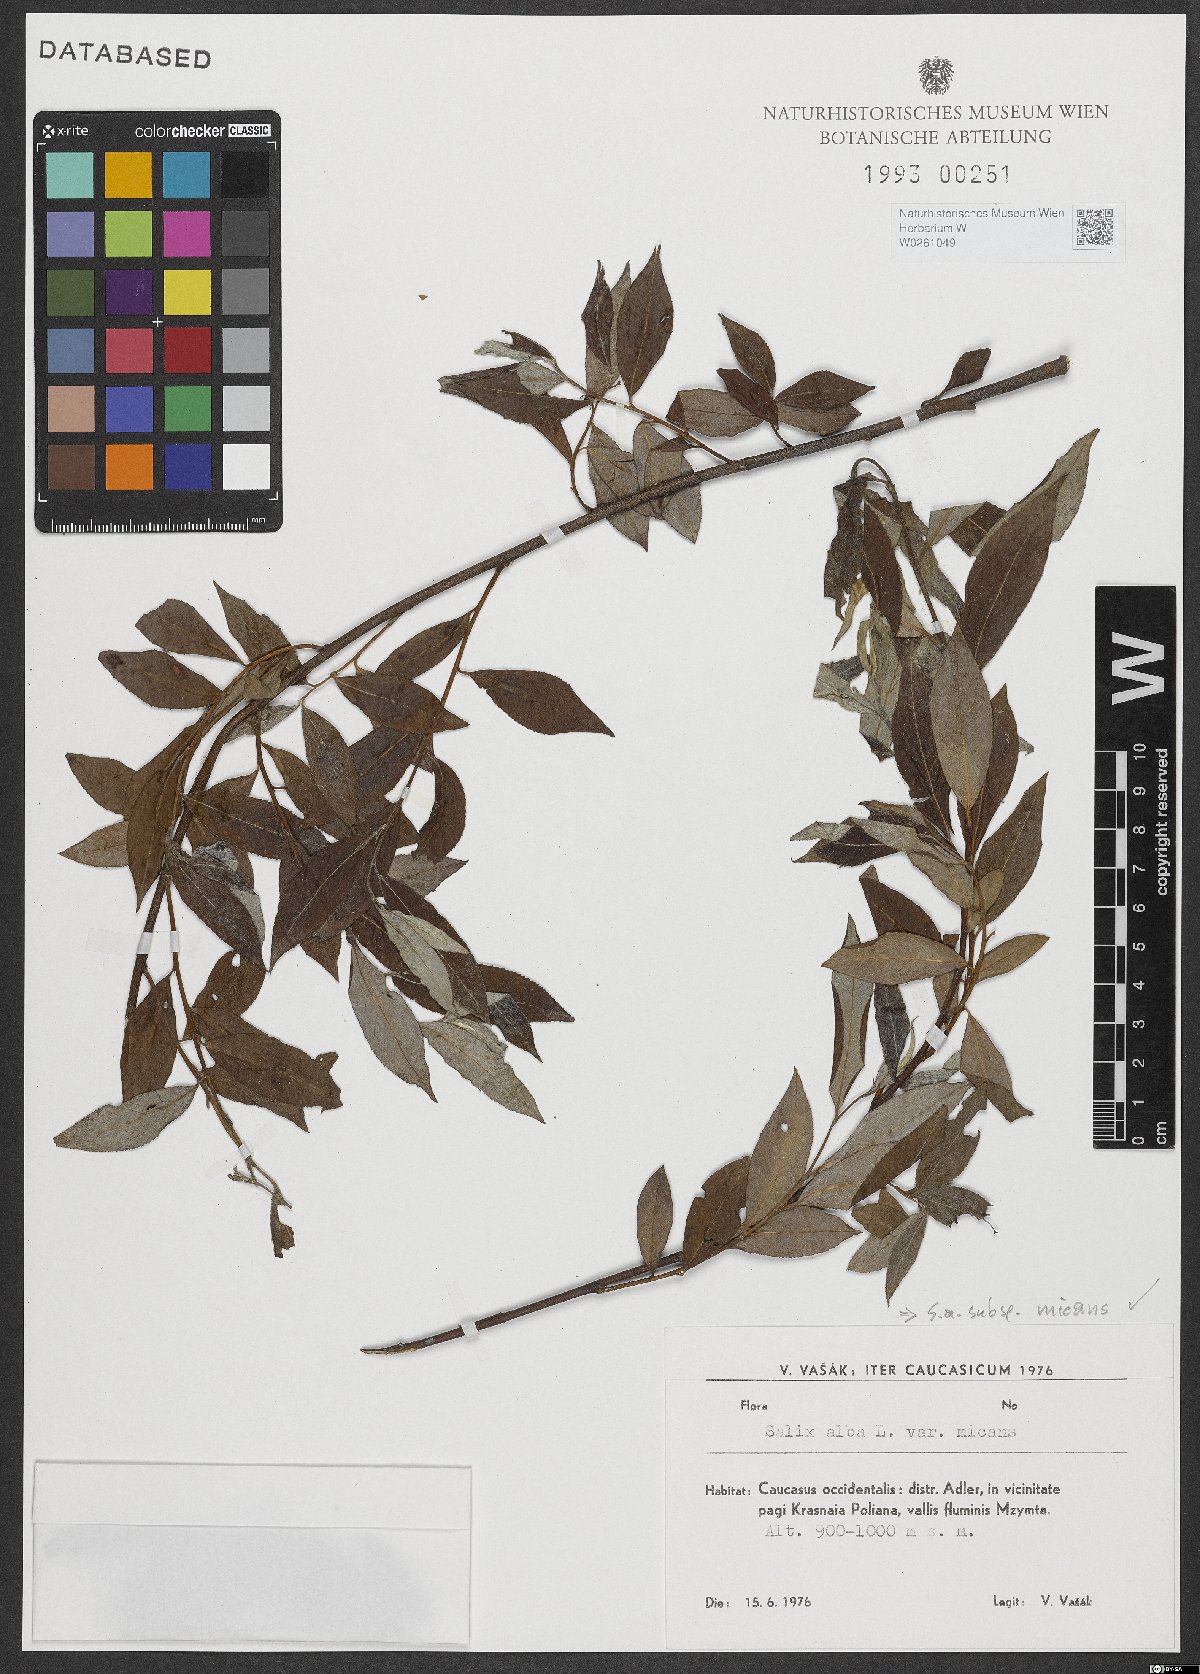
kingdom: Plantae
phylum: Tracheophyta
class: Magnoliopsida
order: Malpighiales
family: Salicaceae
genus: Salix
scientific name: Salix alba
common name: White willow
